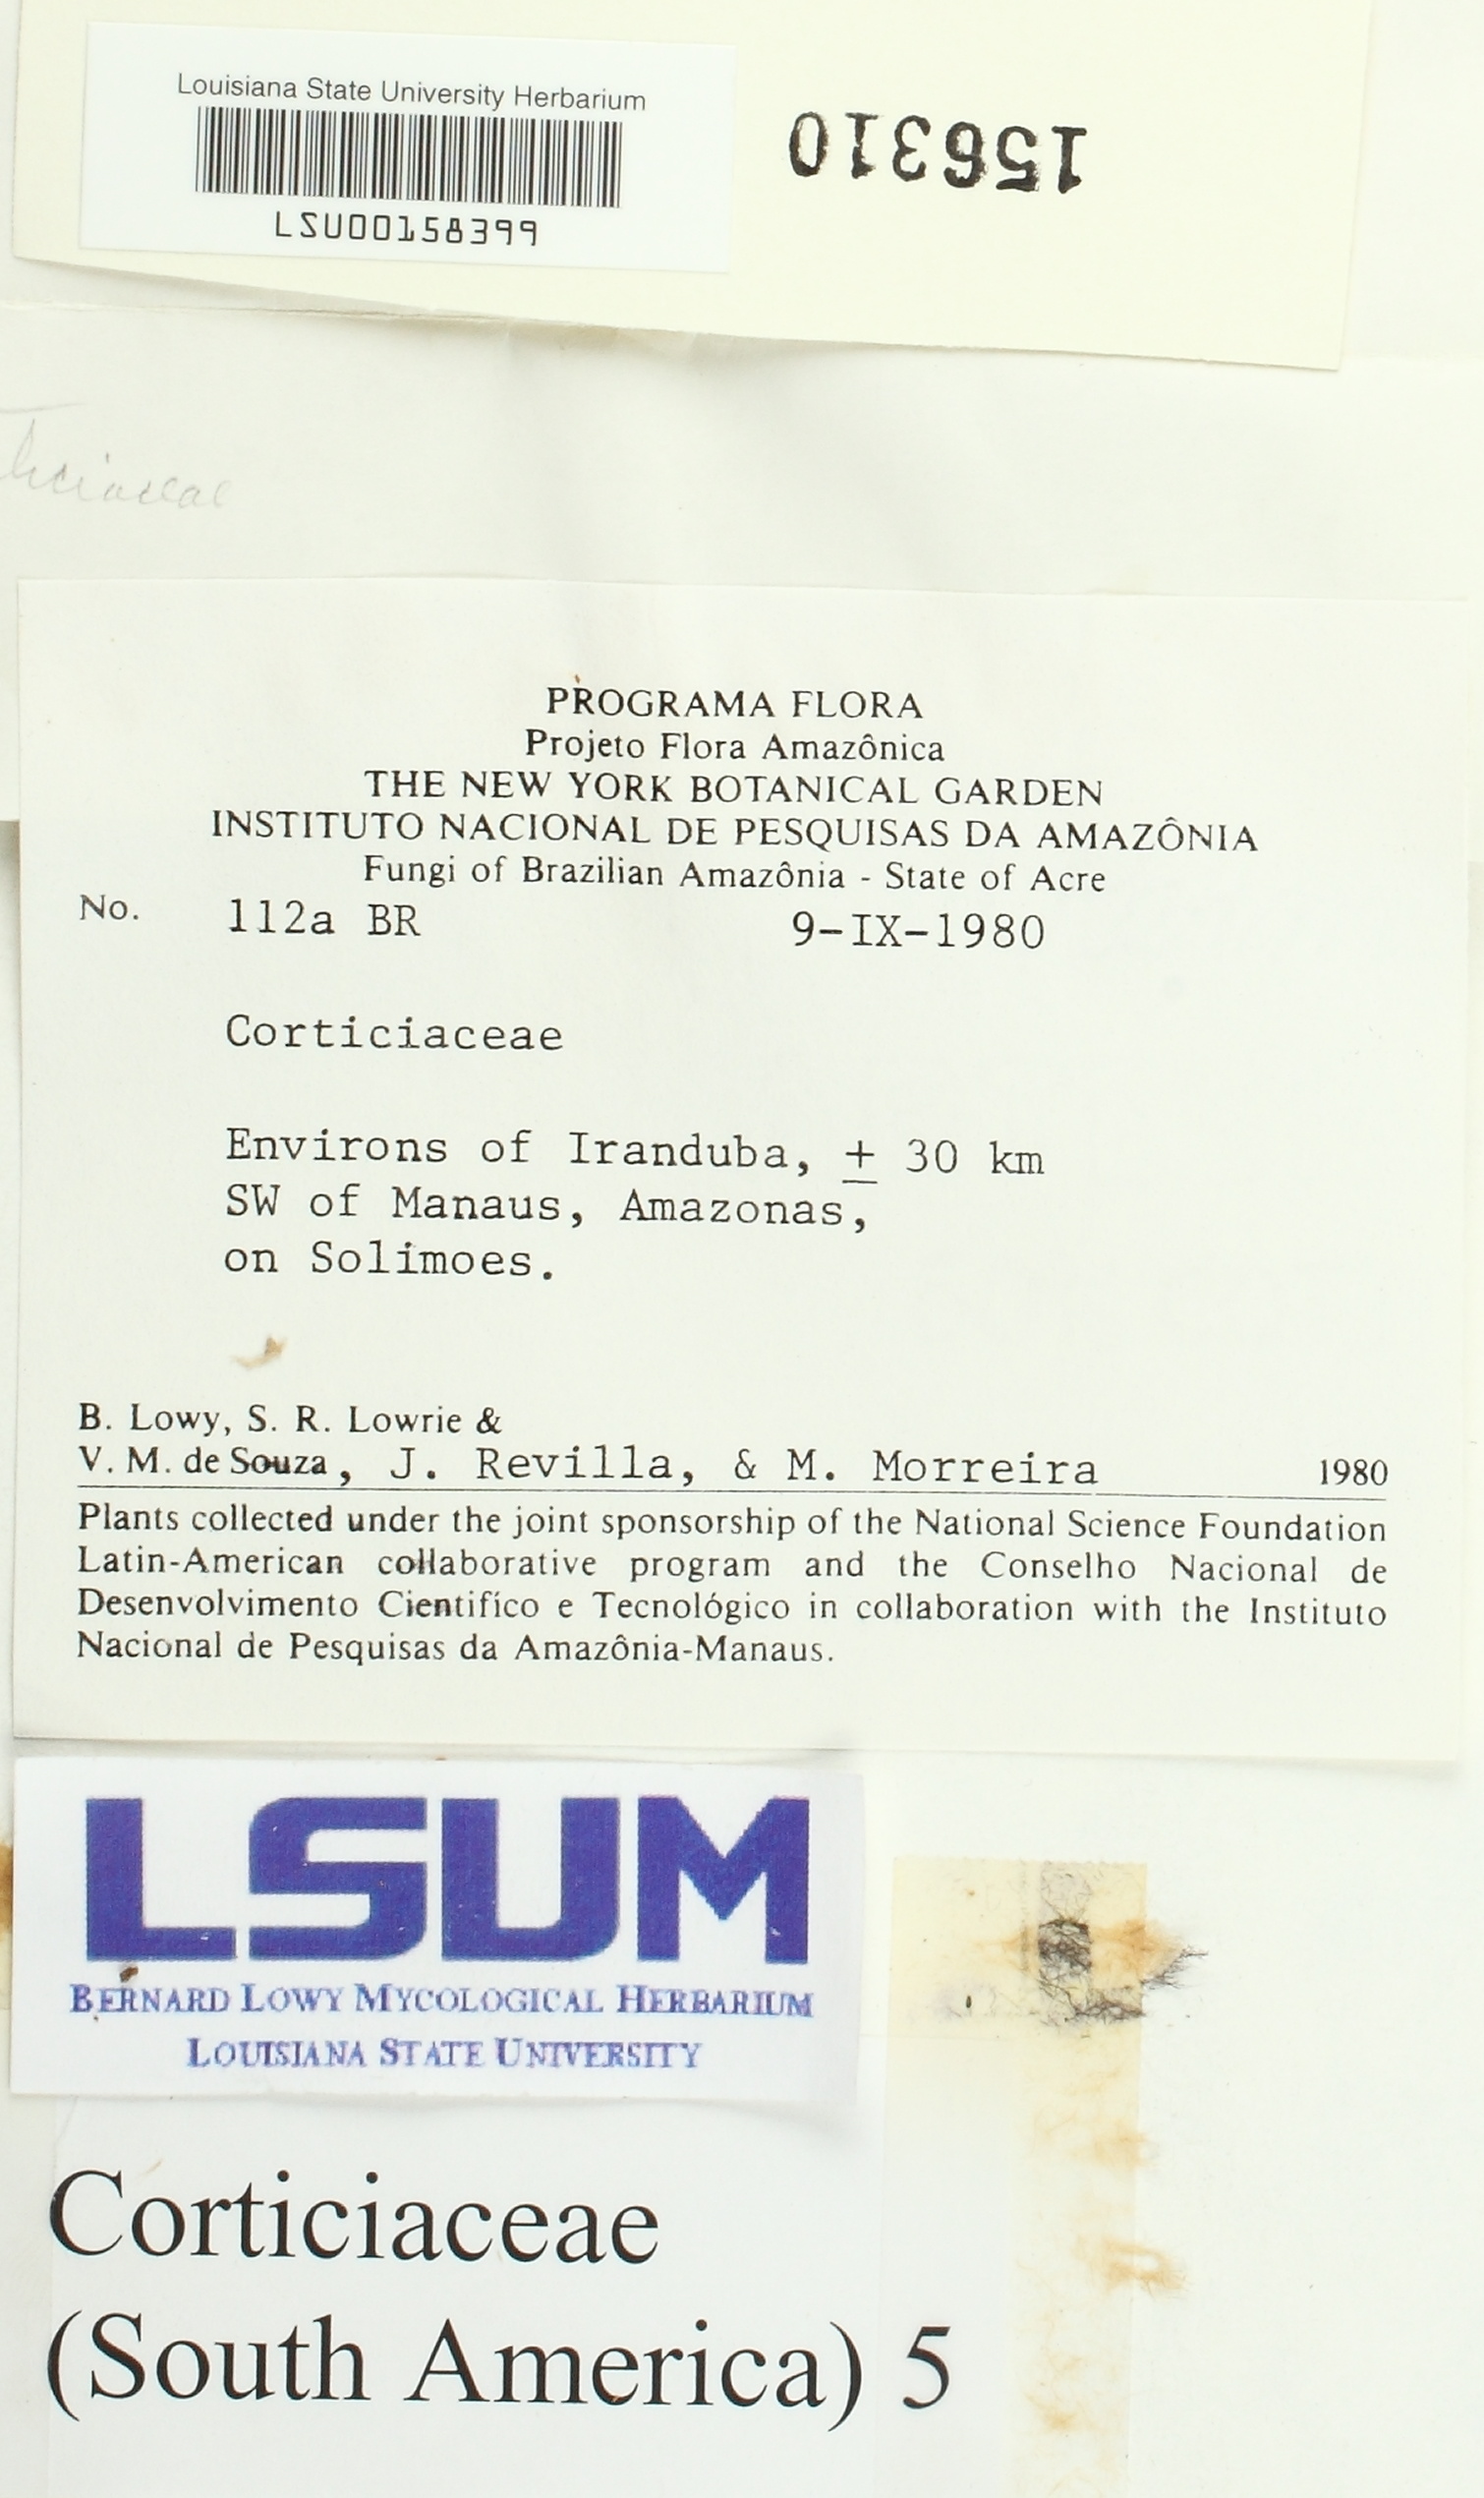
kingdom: Fungi
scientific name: Fungi
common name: Fungi
